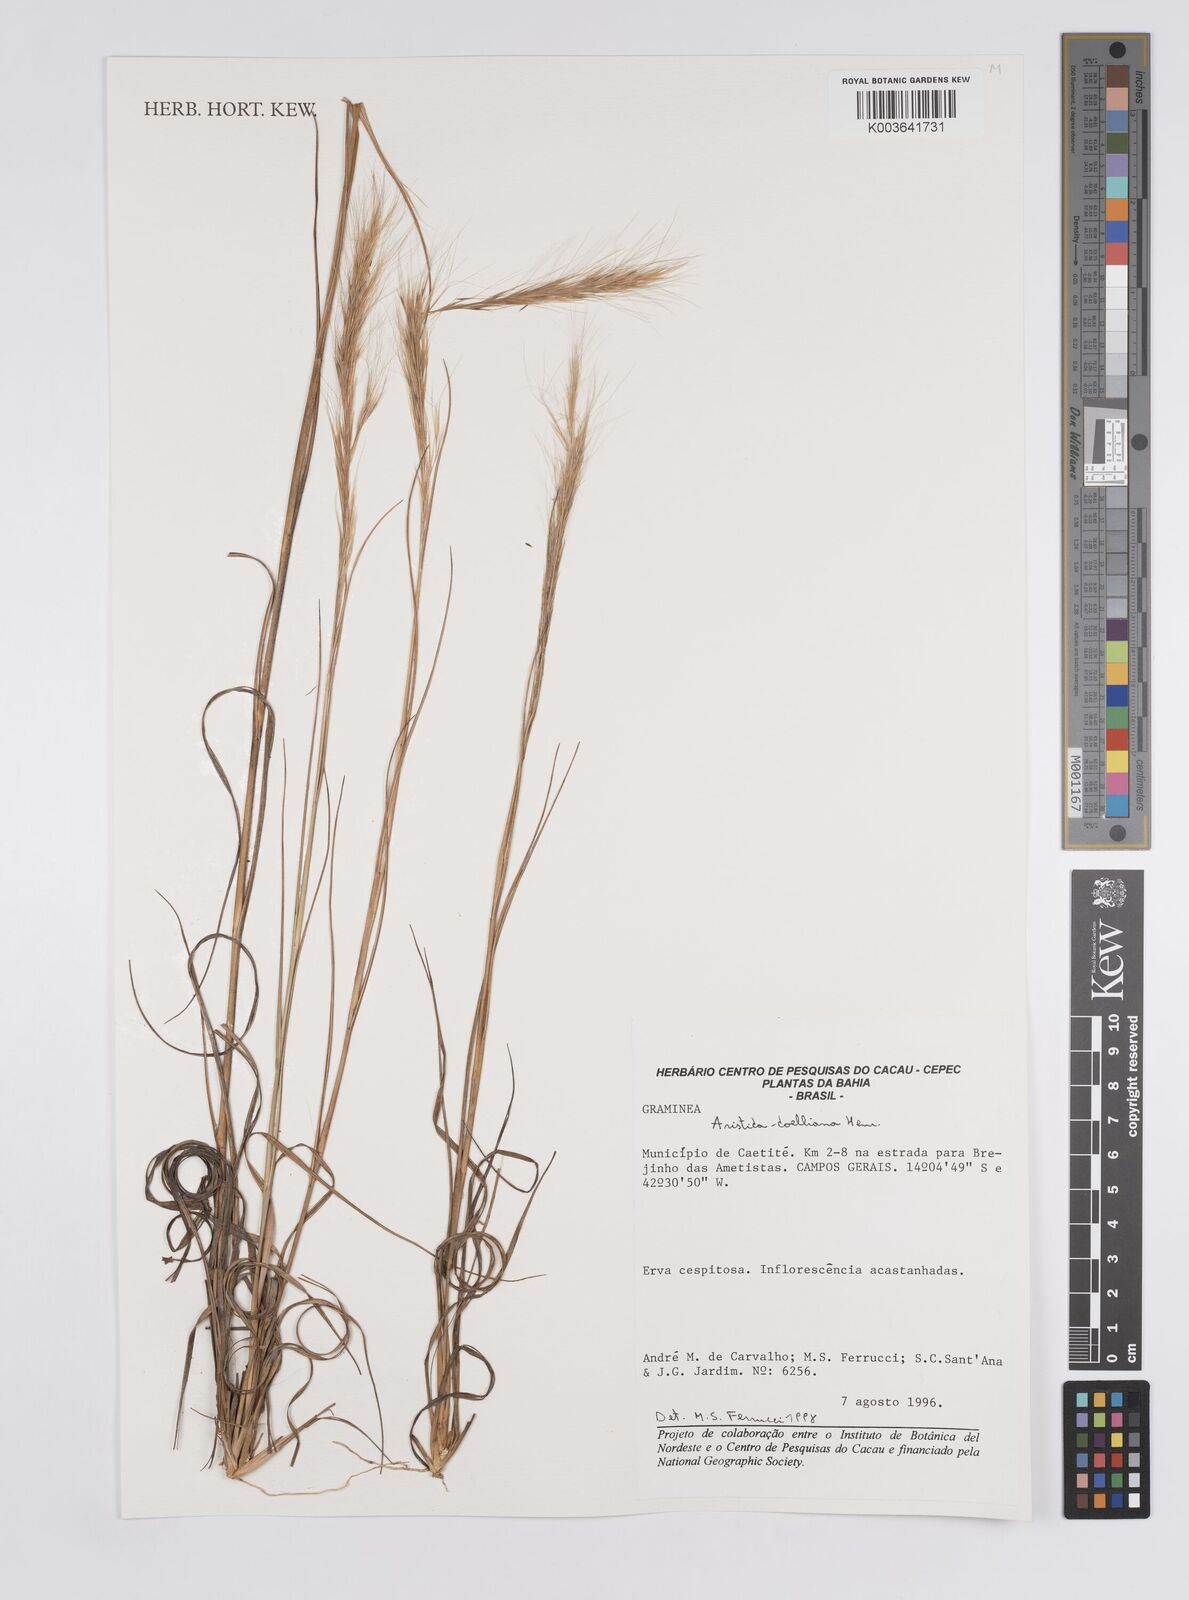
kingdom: Plantae
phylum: Tracheophyta
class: Liliopsida
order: Poales
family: Poaceae
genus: Aristida
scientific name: Aristida setifolia
